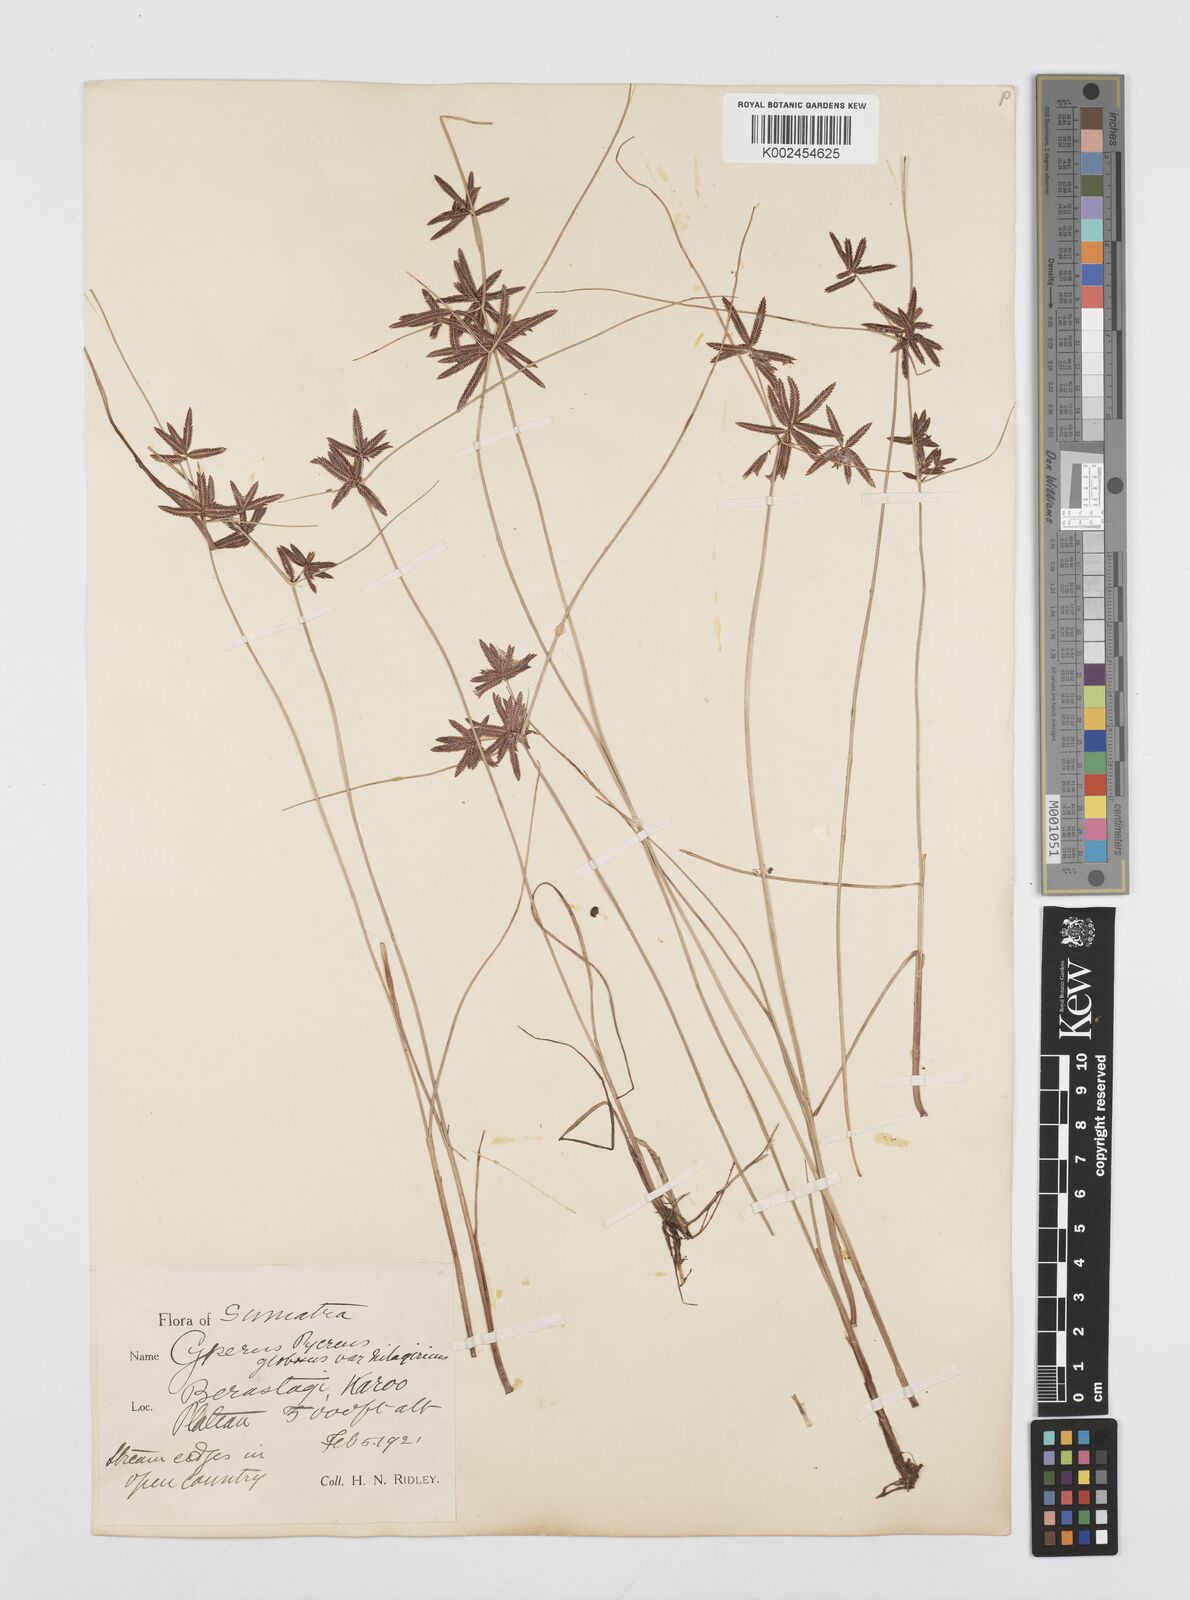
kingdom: Plantae
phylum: Tracheophyta
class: Liliopsida
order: Poales
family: Cyperaceae
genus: Cyperus
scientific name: Cyperus flavidus
